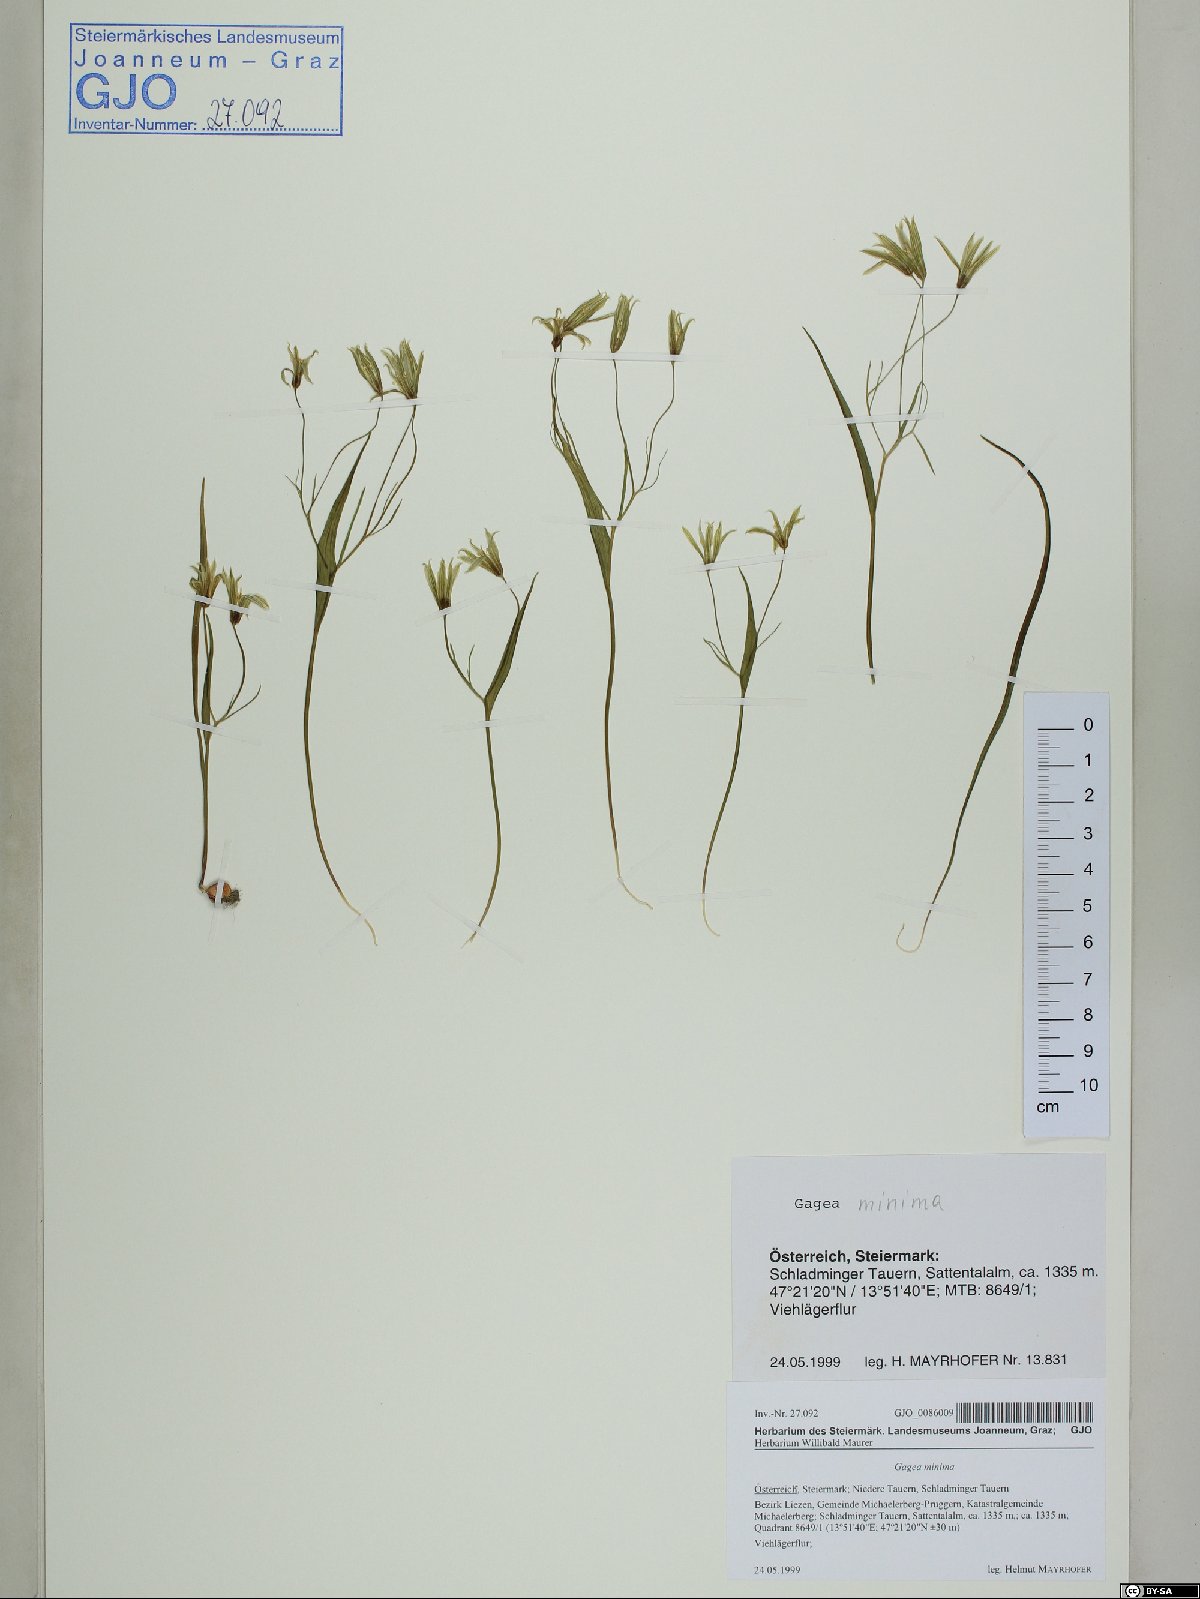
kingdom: Plantae
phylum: Tracheophyta
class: Liliopsida
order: Liliales
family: Liliaceae
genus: Gagea
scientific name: Gagea minima
